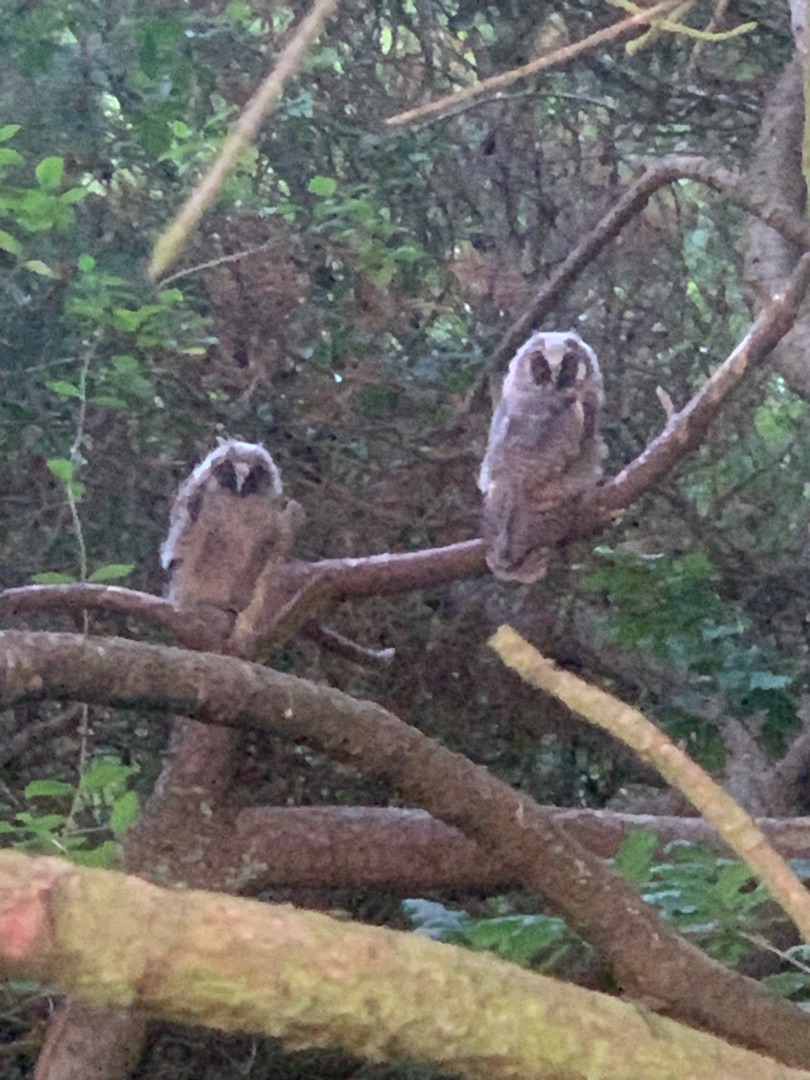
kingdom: Animalia
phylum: Chordata
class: Aves
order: Strigiformes
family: Strigidae
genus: Asio
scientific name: Asio otus
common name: Skovhornugle
